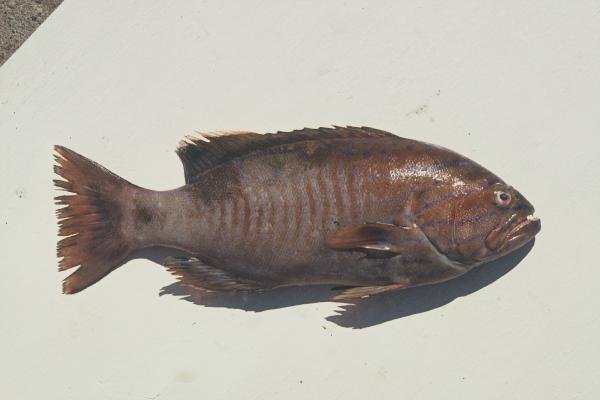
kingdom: Animalia
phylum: Chordata
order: Perciformes
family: Serranidae
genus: Gracila
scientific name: Gracila albomarginata
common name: White-margined grouper
